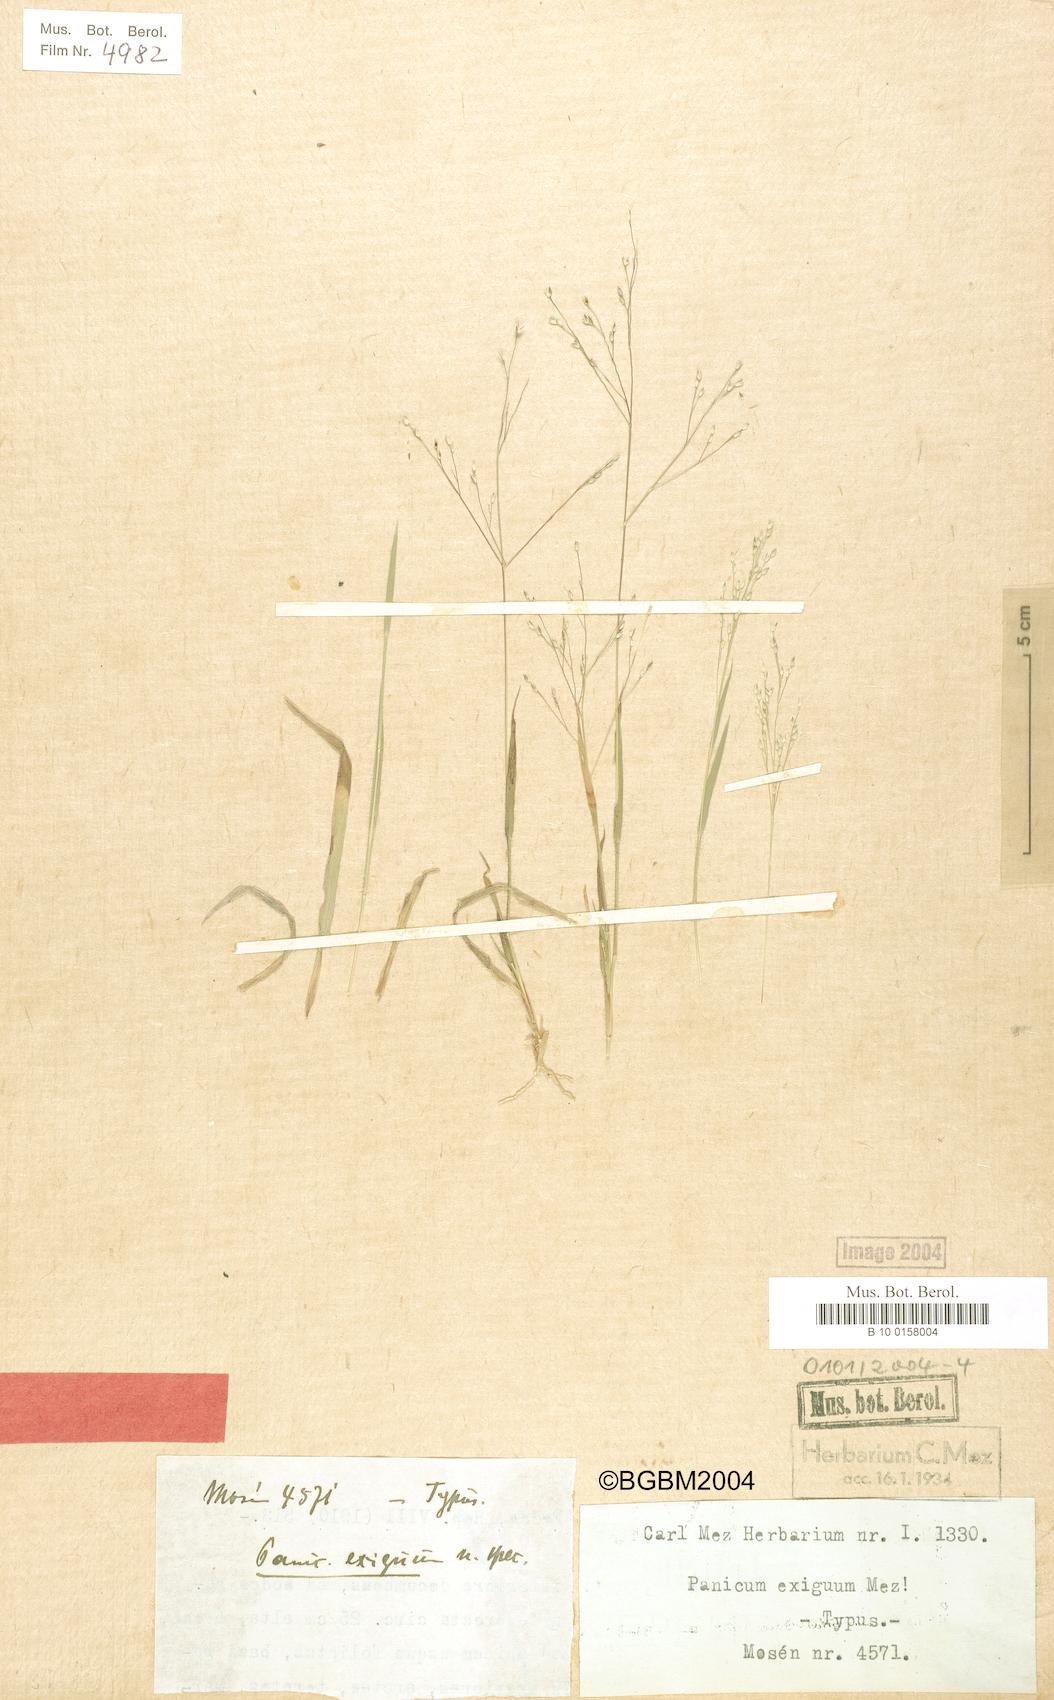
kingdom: Plantae
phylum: Tracheophyta
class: Liliopsida
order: Poales
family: Poaceae
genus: Panicum
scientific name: Panicum exiguum
